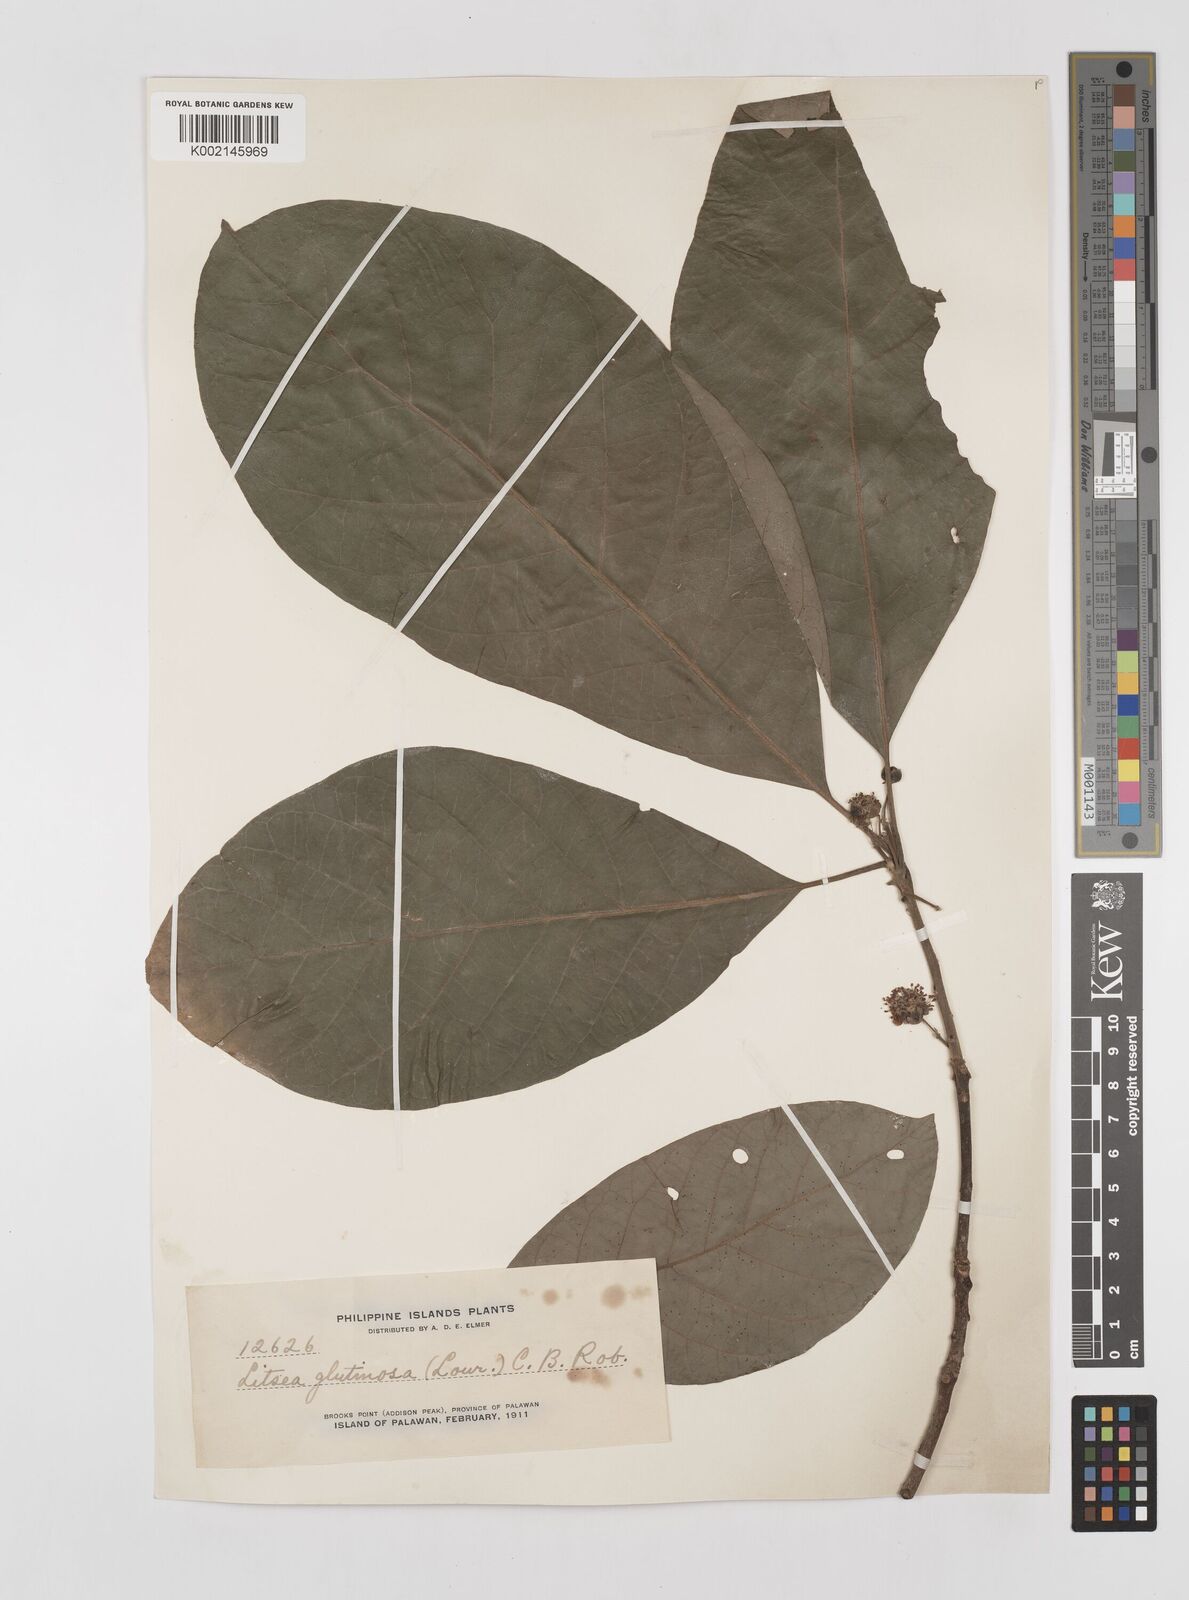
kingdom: Plantae
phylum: Tracheophyta
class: Magnoliopsida
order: Laurales
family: Lauraceae
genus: Litsea
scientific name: Litsea glutinosa
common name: Indian-laurel
